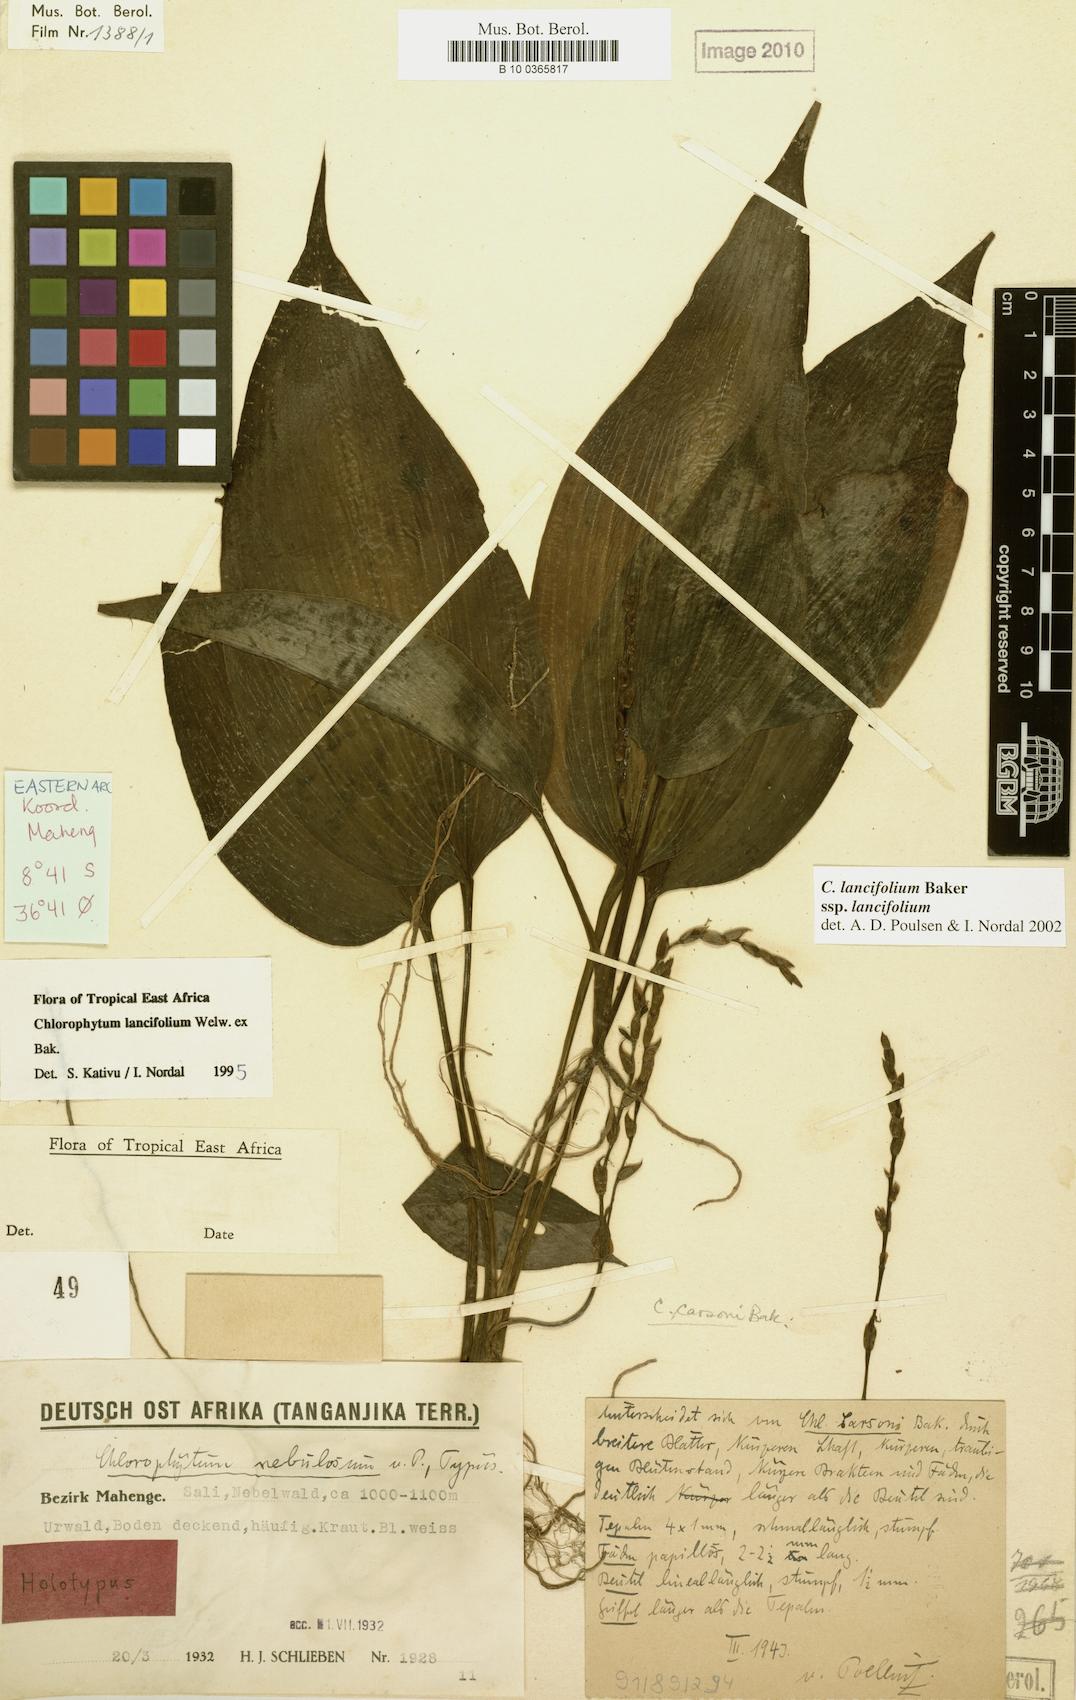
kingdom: Plantae
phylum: Tracheophyta
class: Liliopsida
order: Asparagales
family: Asparagaceae
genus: Chlorophytum
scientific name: Chlorophytum lancifolium
